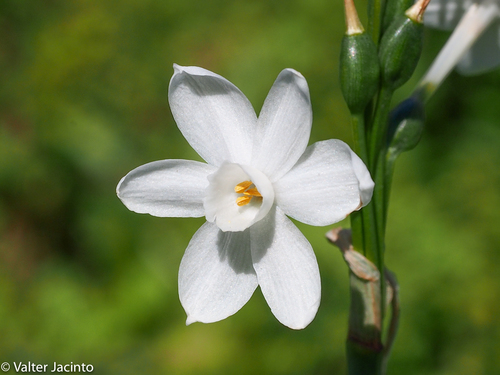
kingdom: Plantae
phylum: Tracheophyta
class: Liliopsida
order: Asparagales
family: Amaryllidaceae
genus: Narcissus
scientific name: Narcissus papyraceus
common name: Paper-white daffodil
